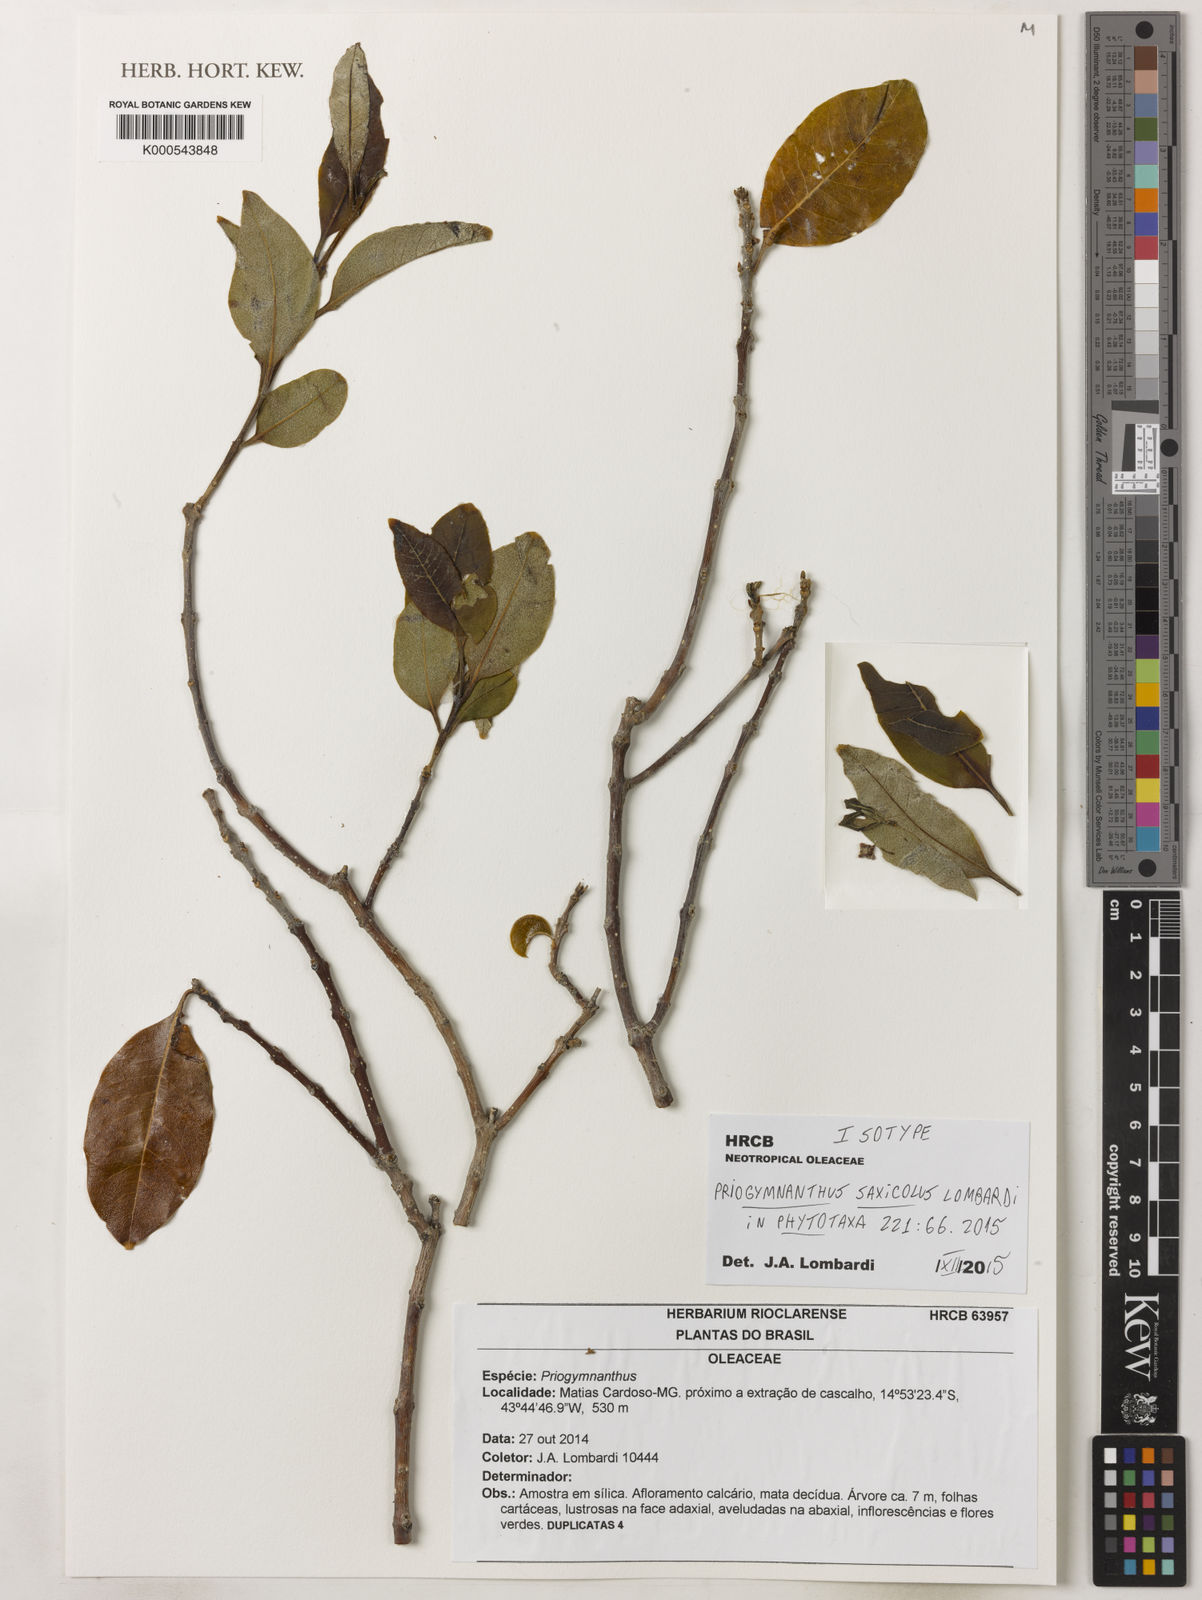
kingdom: Plantae
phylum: Tracheophyta
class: Magnoliopsida
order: Lamiales
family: Oleaceae
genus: Priogymnanthus
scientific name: Priogymnanthus saxicola
